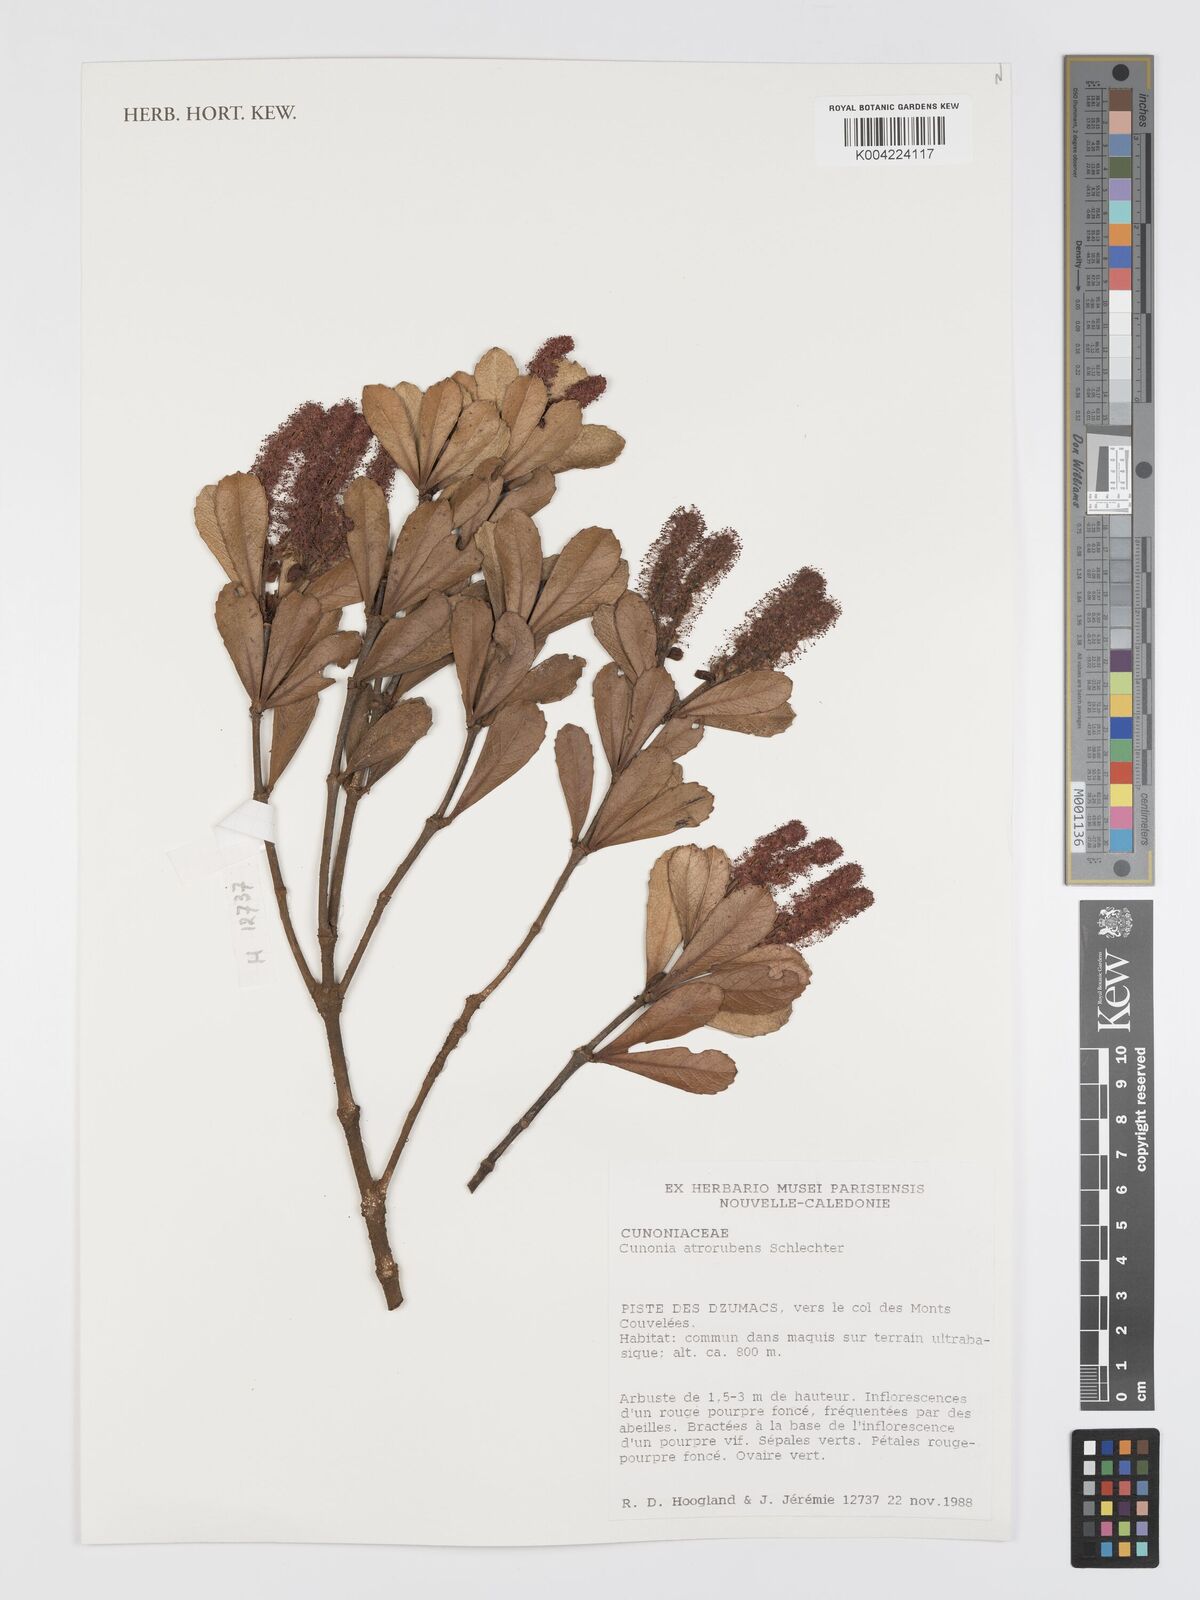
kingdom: Plantae
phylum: Tracheophyta
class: Magnoliopsida
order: Oxalidales
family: Cunoniaceae
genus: Cunonia
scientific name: Cunonia atrorubens
